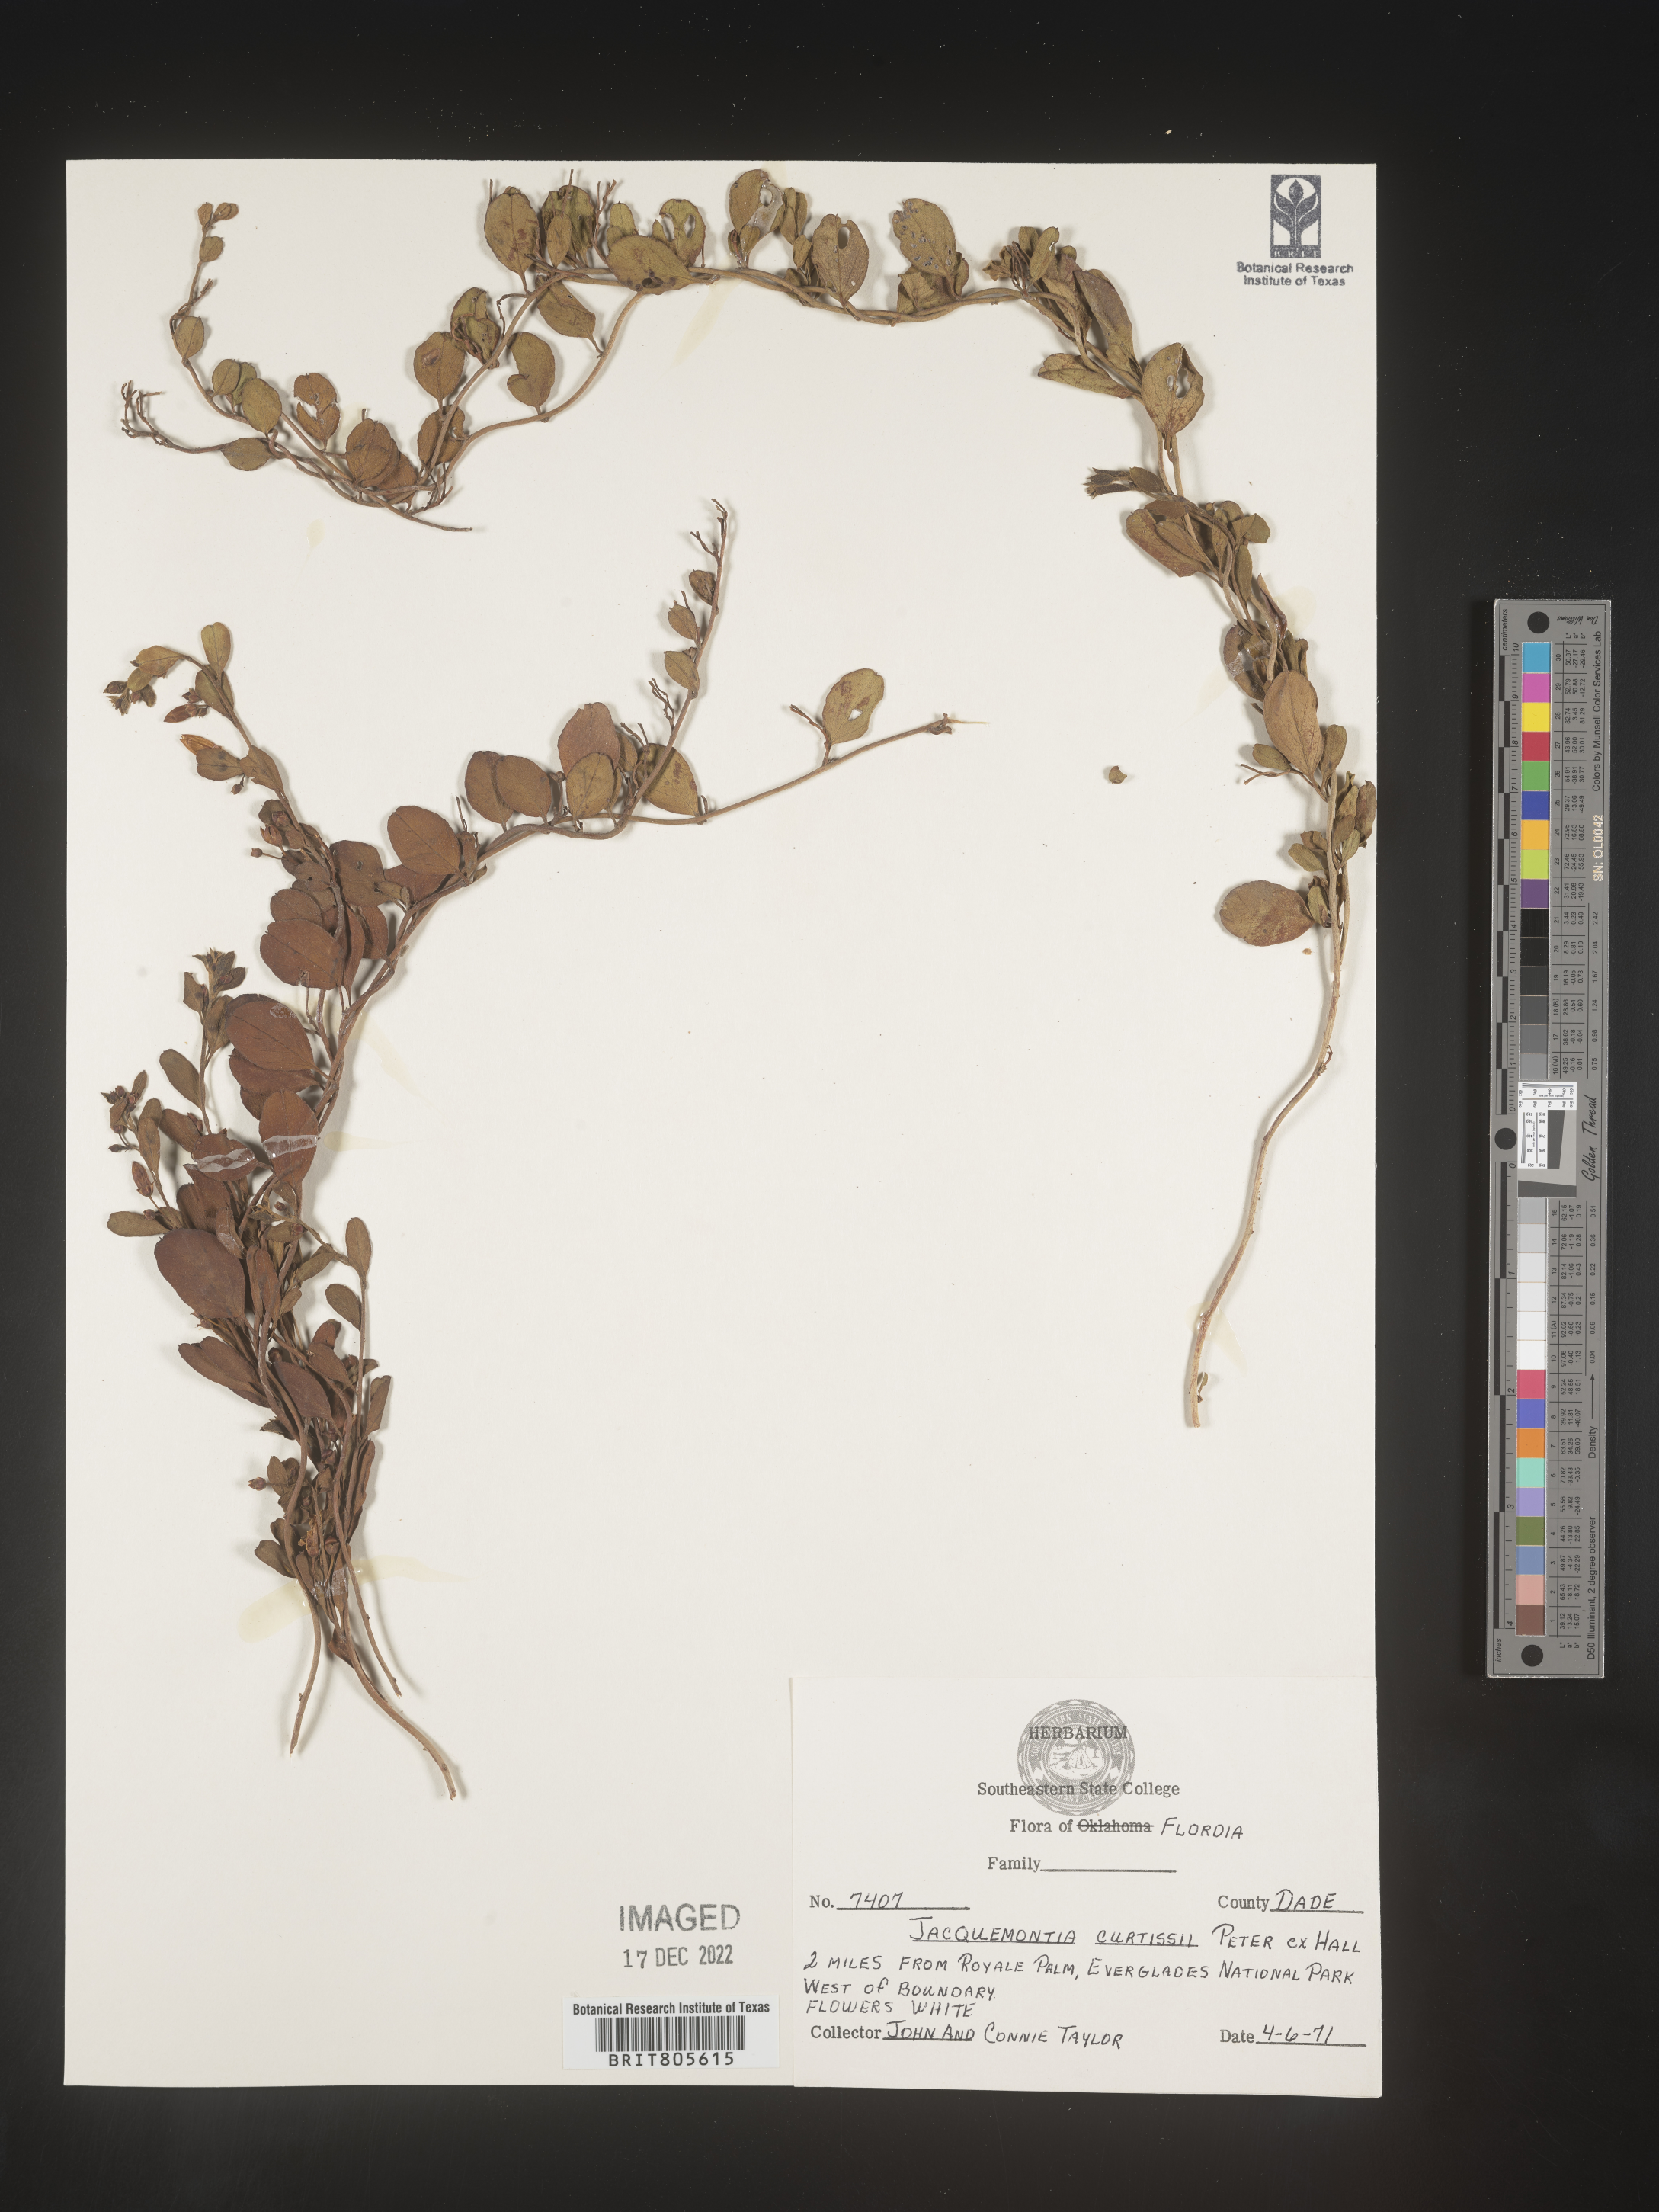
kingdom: Plantae
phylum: Tracheophyta
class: Magnoliopsida
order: Solanales
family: Convolvulaceae
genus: Jacquemontia
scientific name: Jacquemontia
